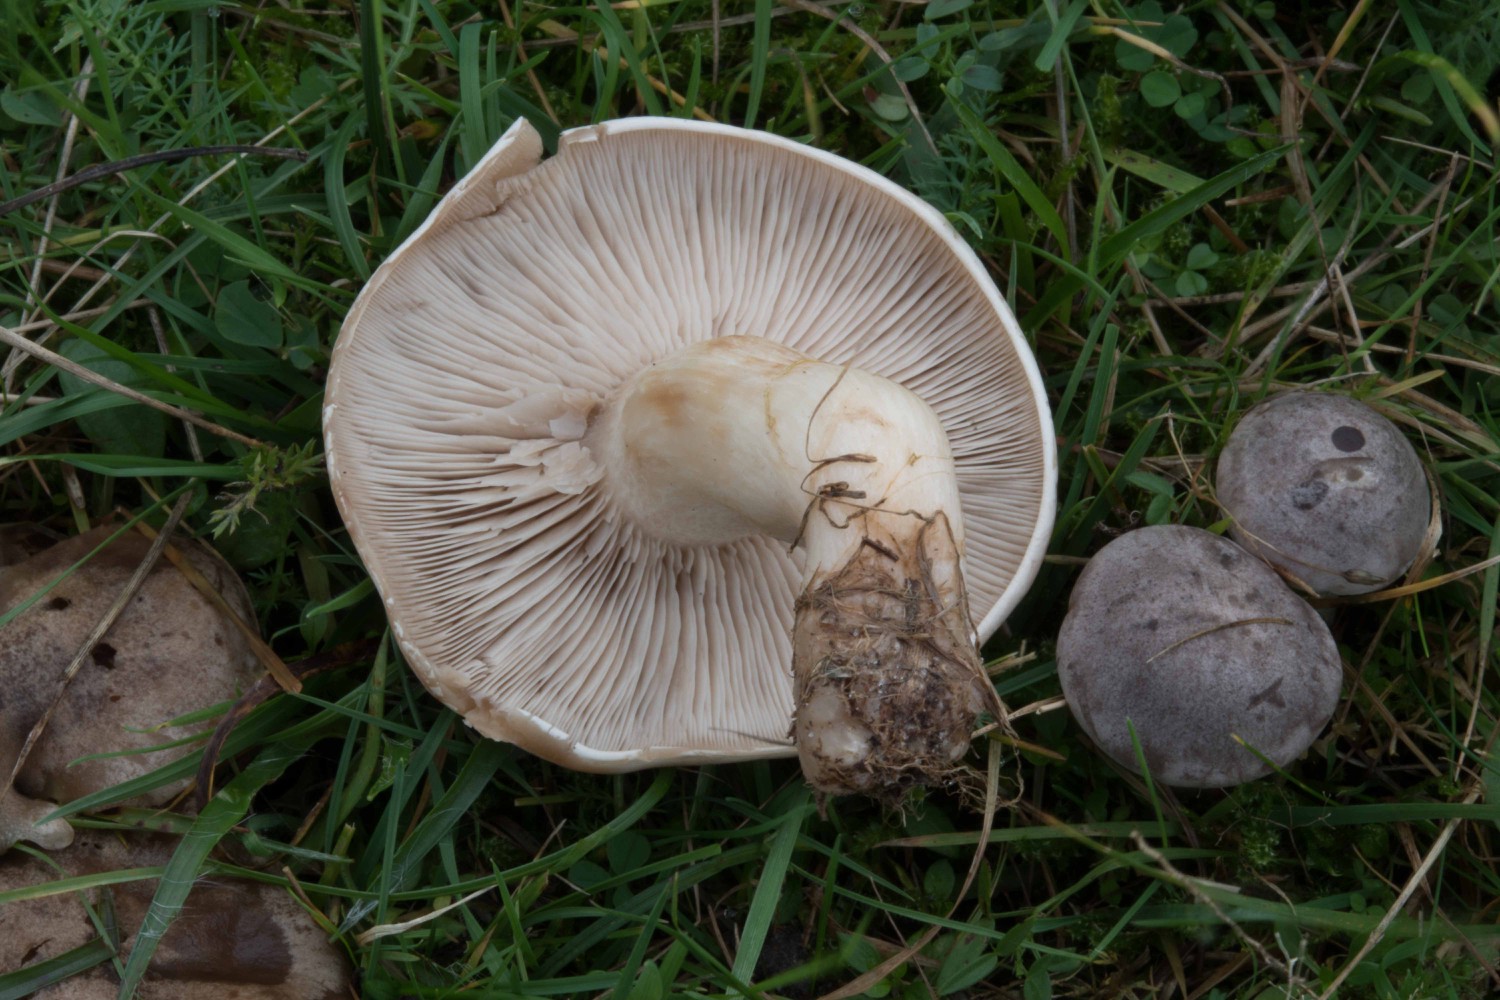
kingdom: Fungi
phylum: Basidiomycota
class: Agaricomycetes
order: Agaricales
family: Tricholomataceae
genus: Lepista
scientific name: Lepista panaeolus
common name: marmoreret hekseringshat
